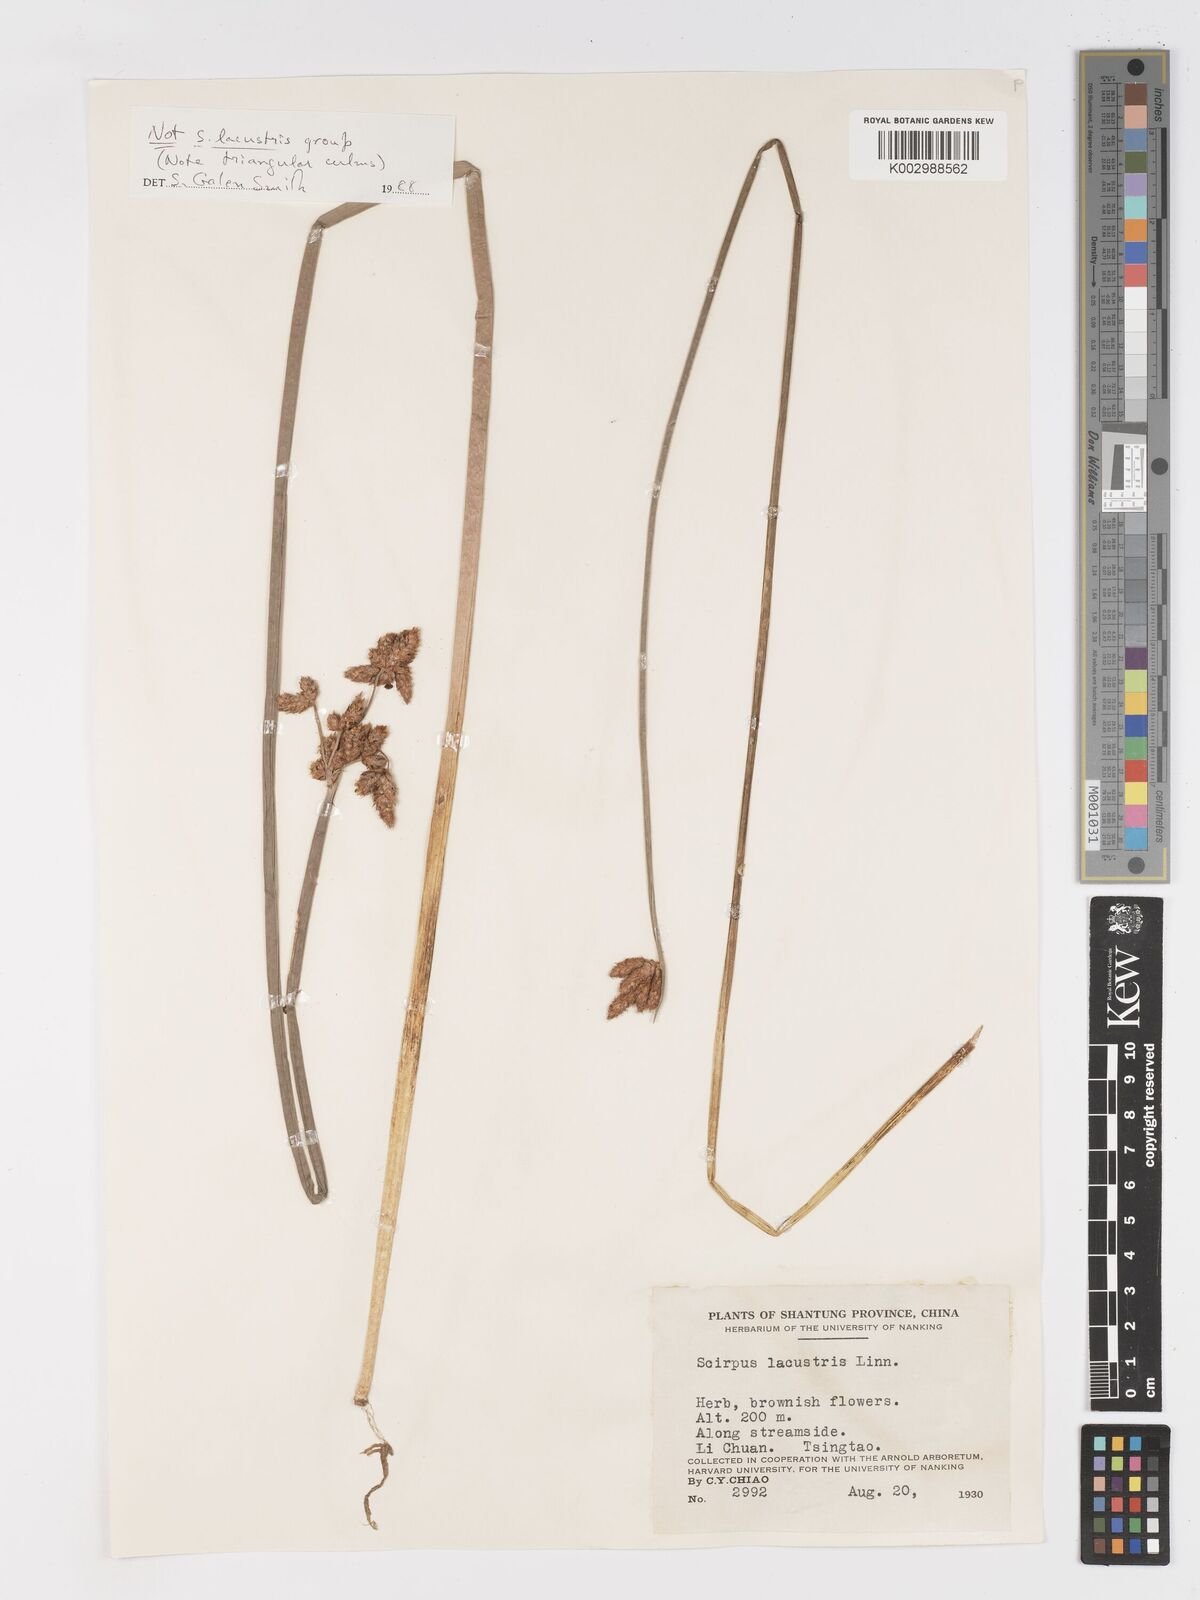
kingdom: Plantae
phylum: Tracheophyta
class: Liliopsida
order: Poales
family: Cyperaceae
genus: Schoenoplectus
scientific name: Schoenoplectus
